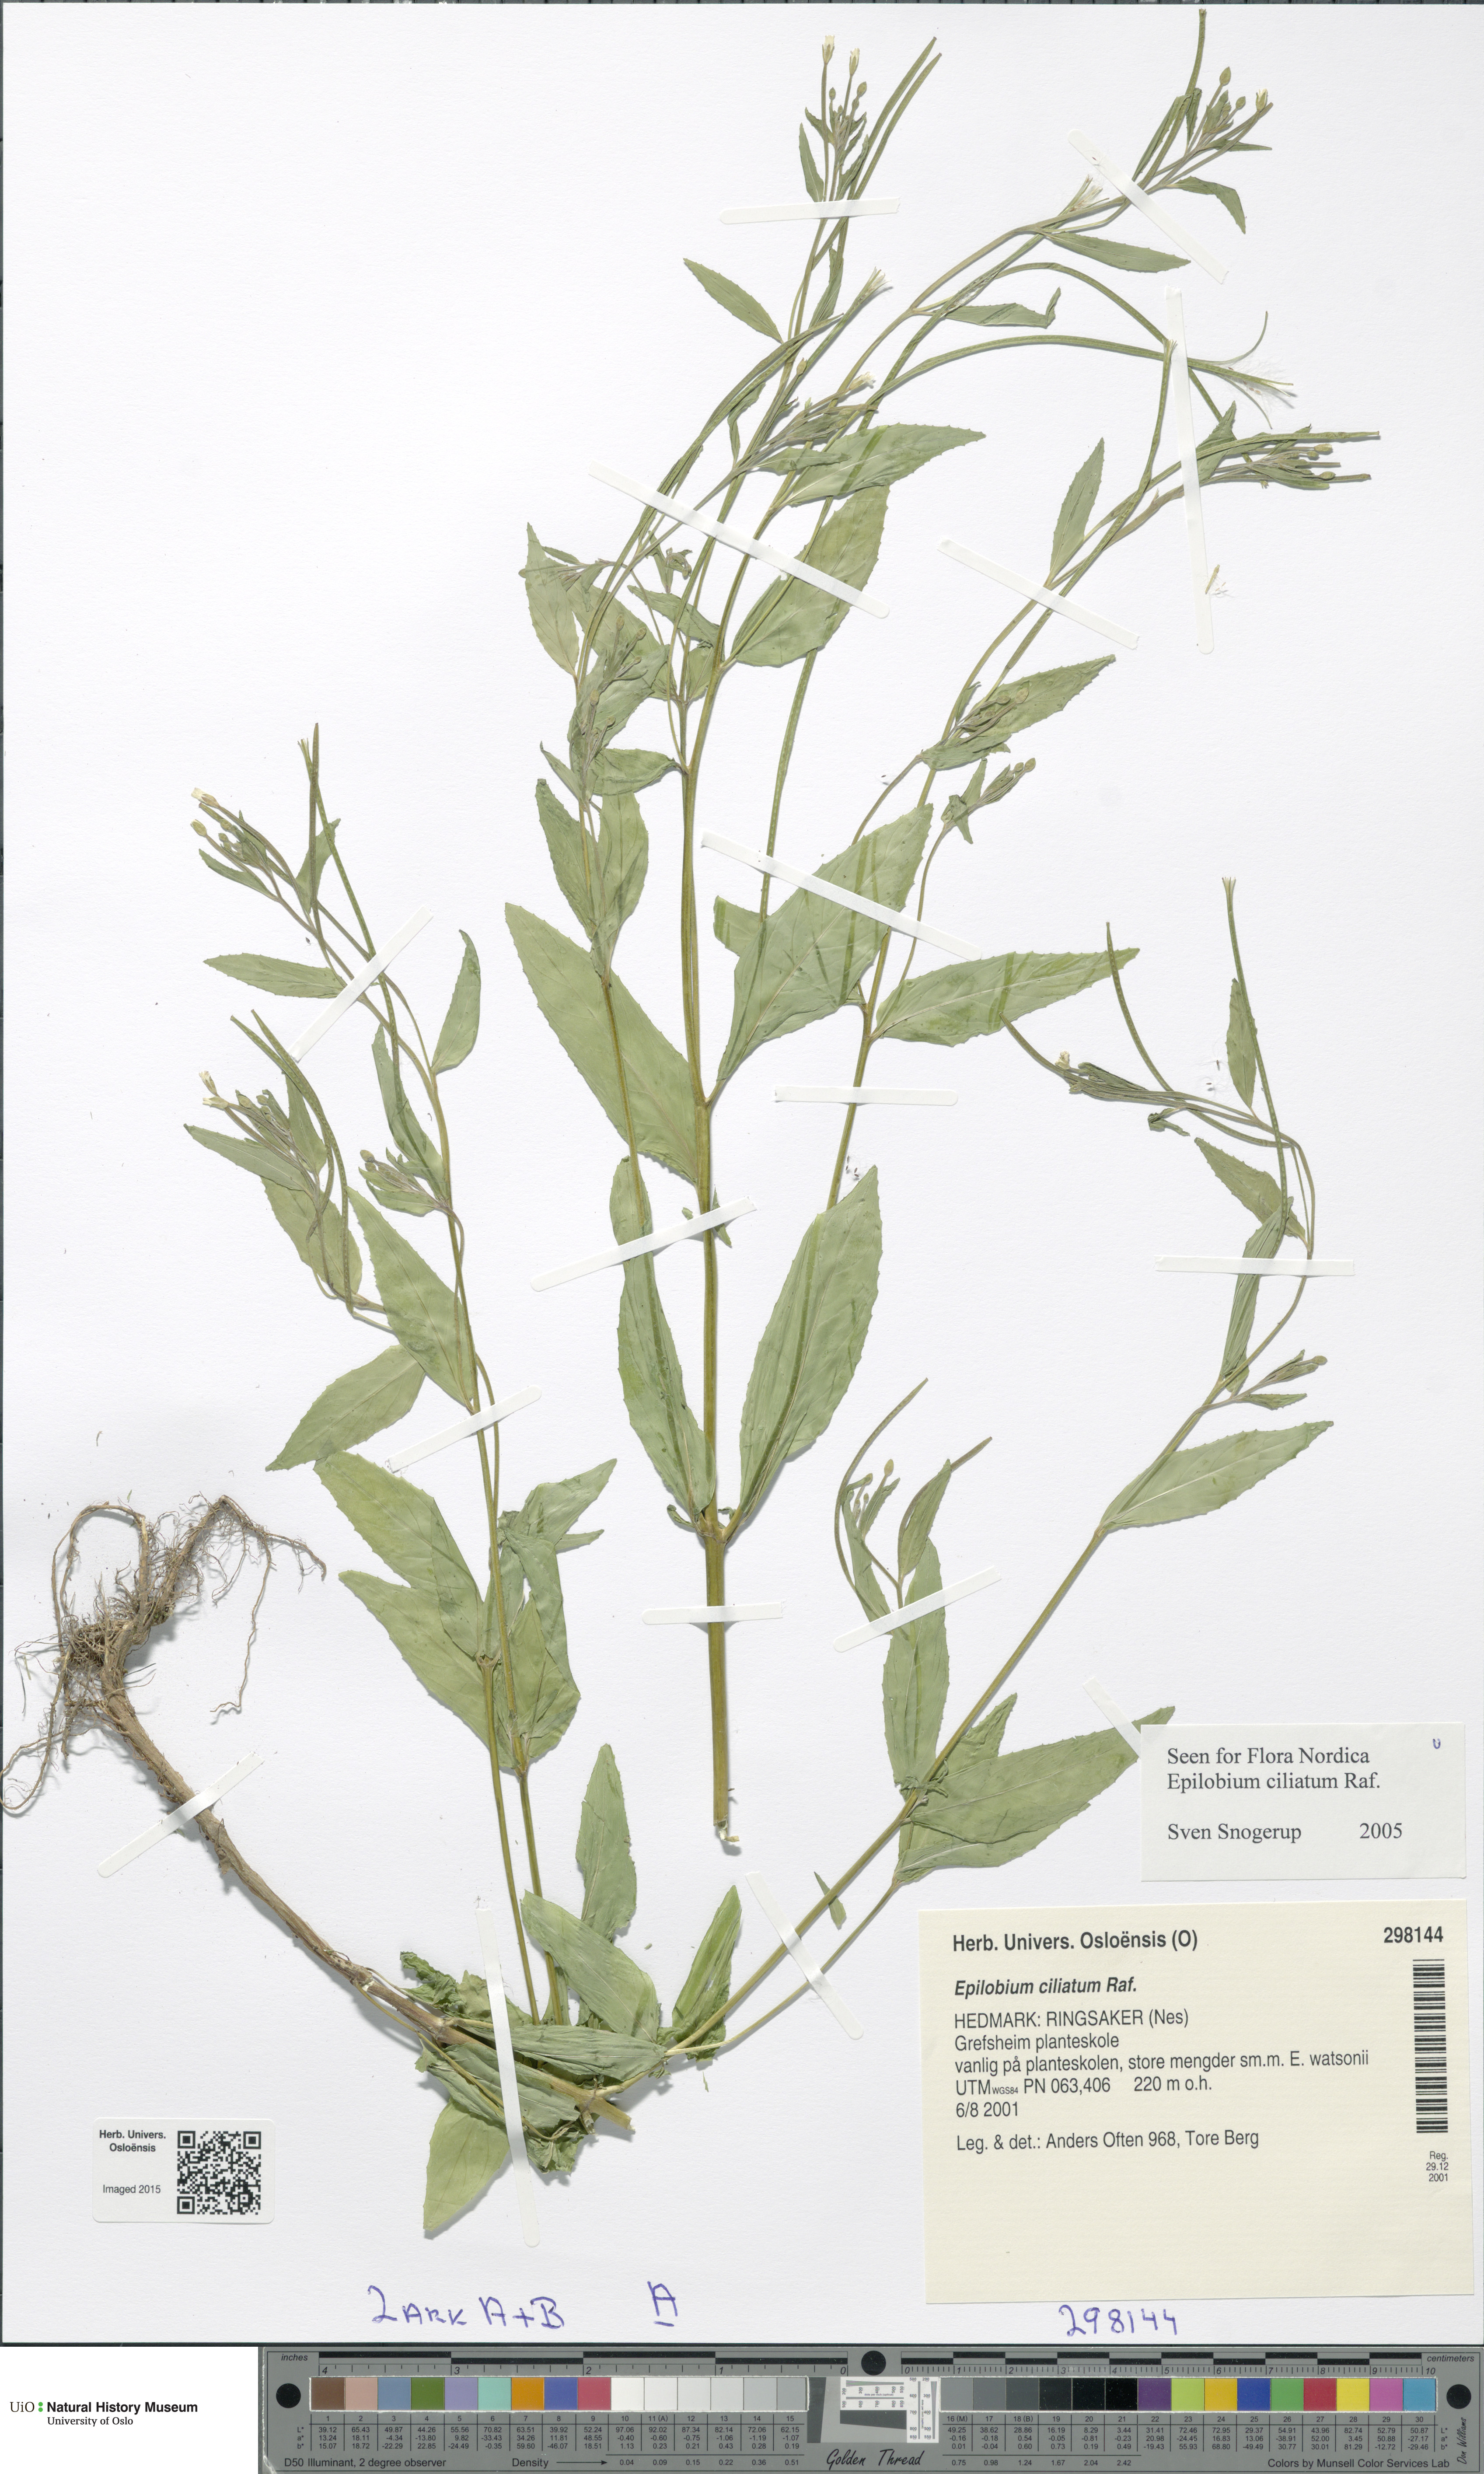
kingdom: Plantae
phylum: Tracheophyta
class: Magnoliopsida
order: Myrtales
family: Onagraceae
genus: Epilobium
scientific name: Epilobium ciliatum
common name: American willowherb
